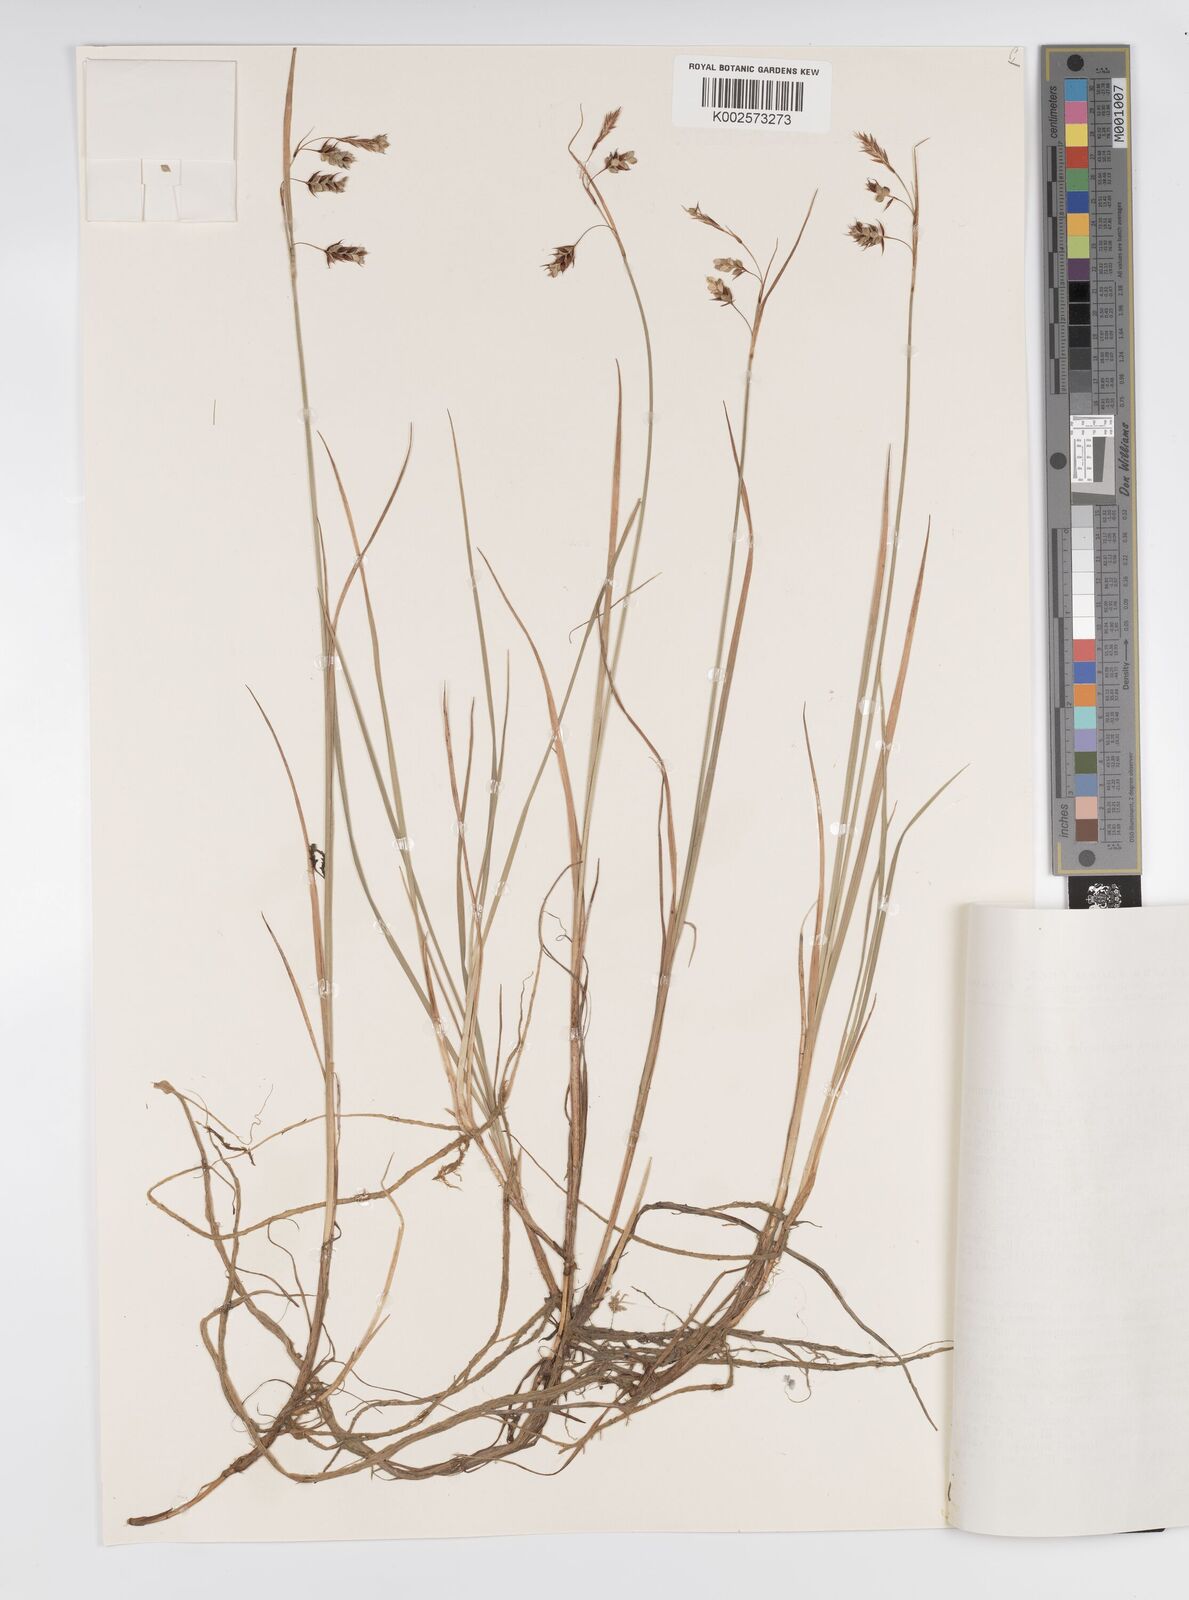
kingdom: Plantae
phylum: Tracheophyta
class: Liliopsida
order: Poales
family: Cyperaceae
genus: Carex
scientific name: Carex magellanica
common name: Bog sedge
